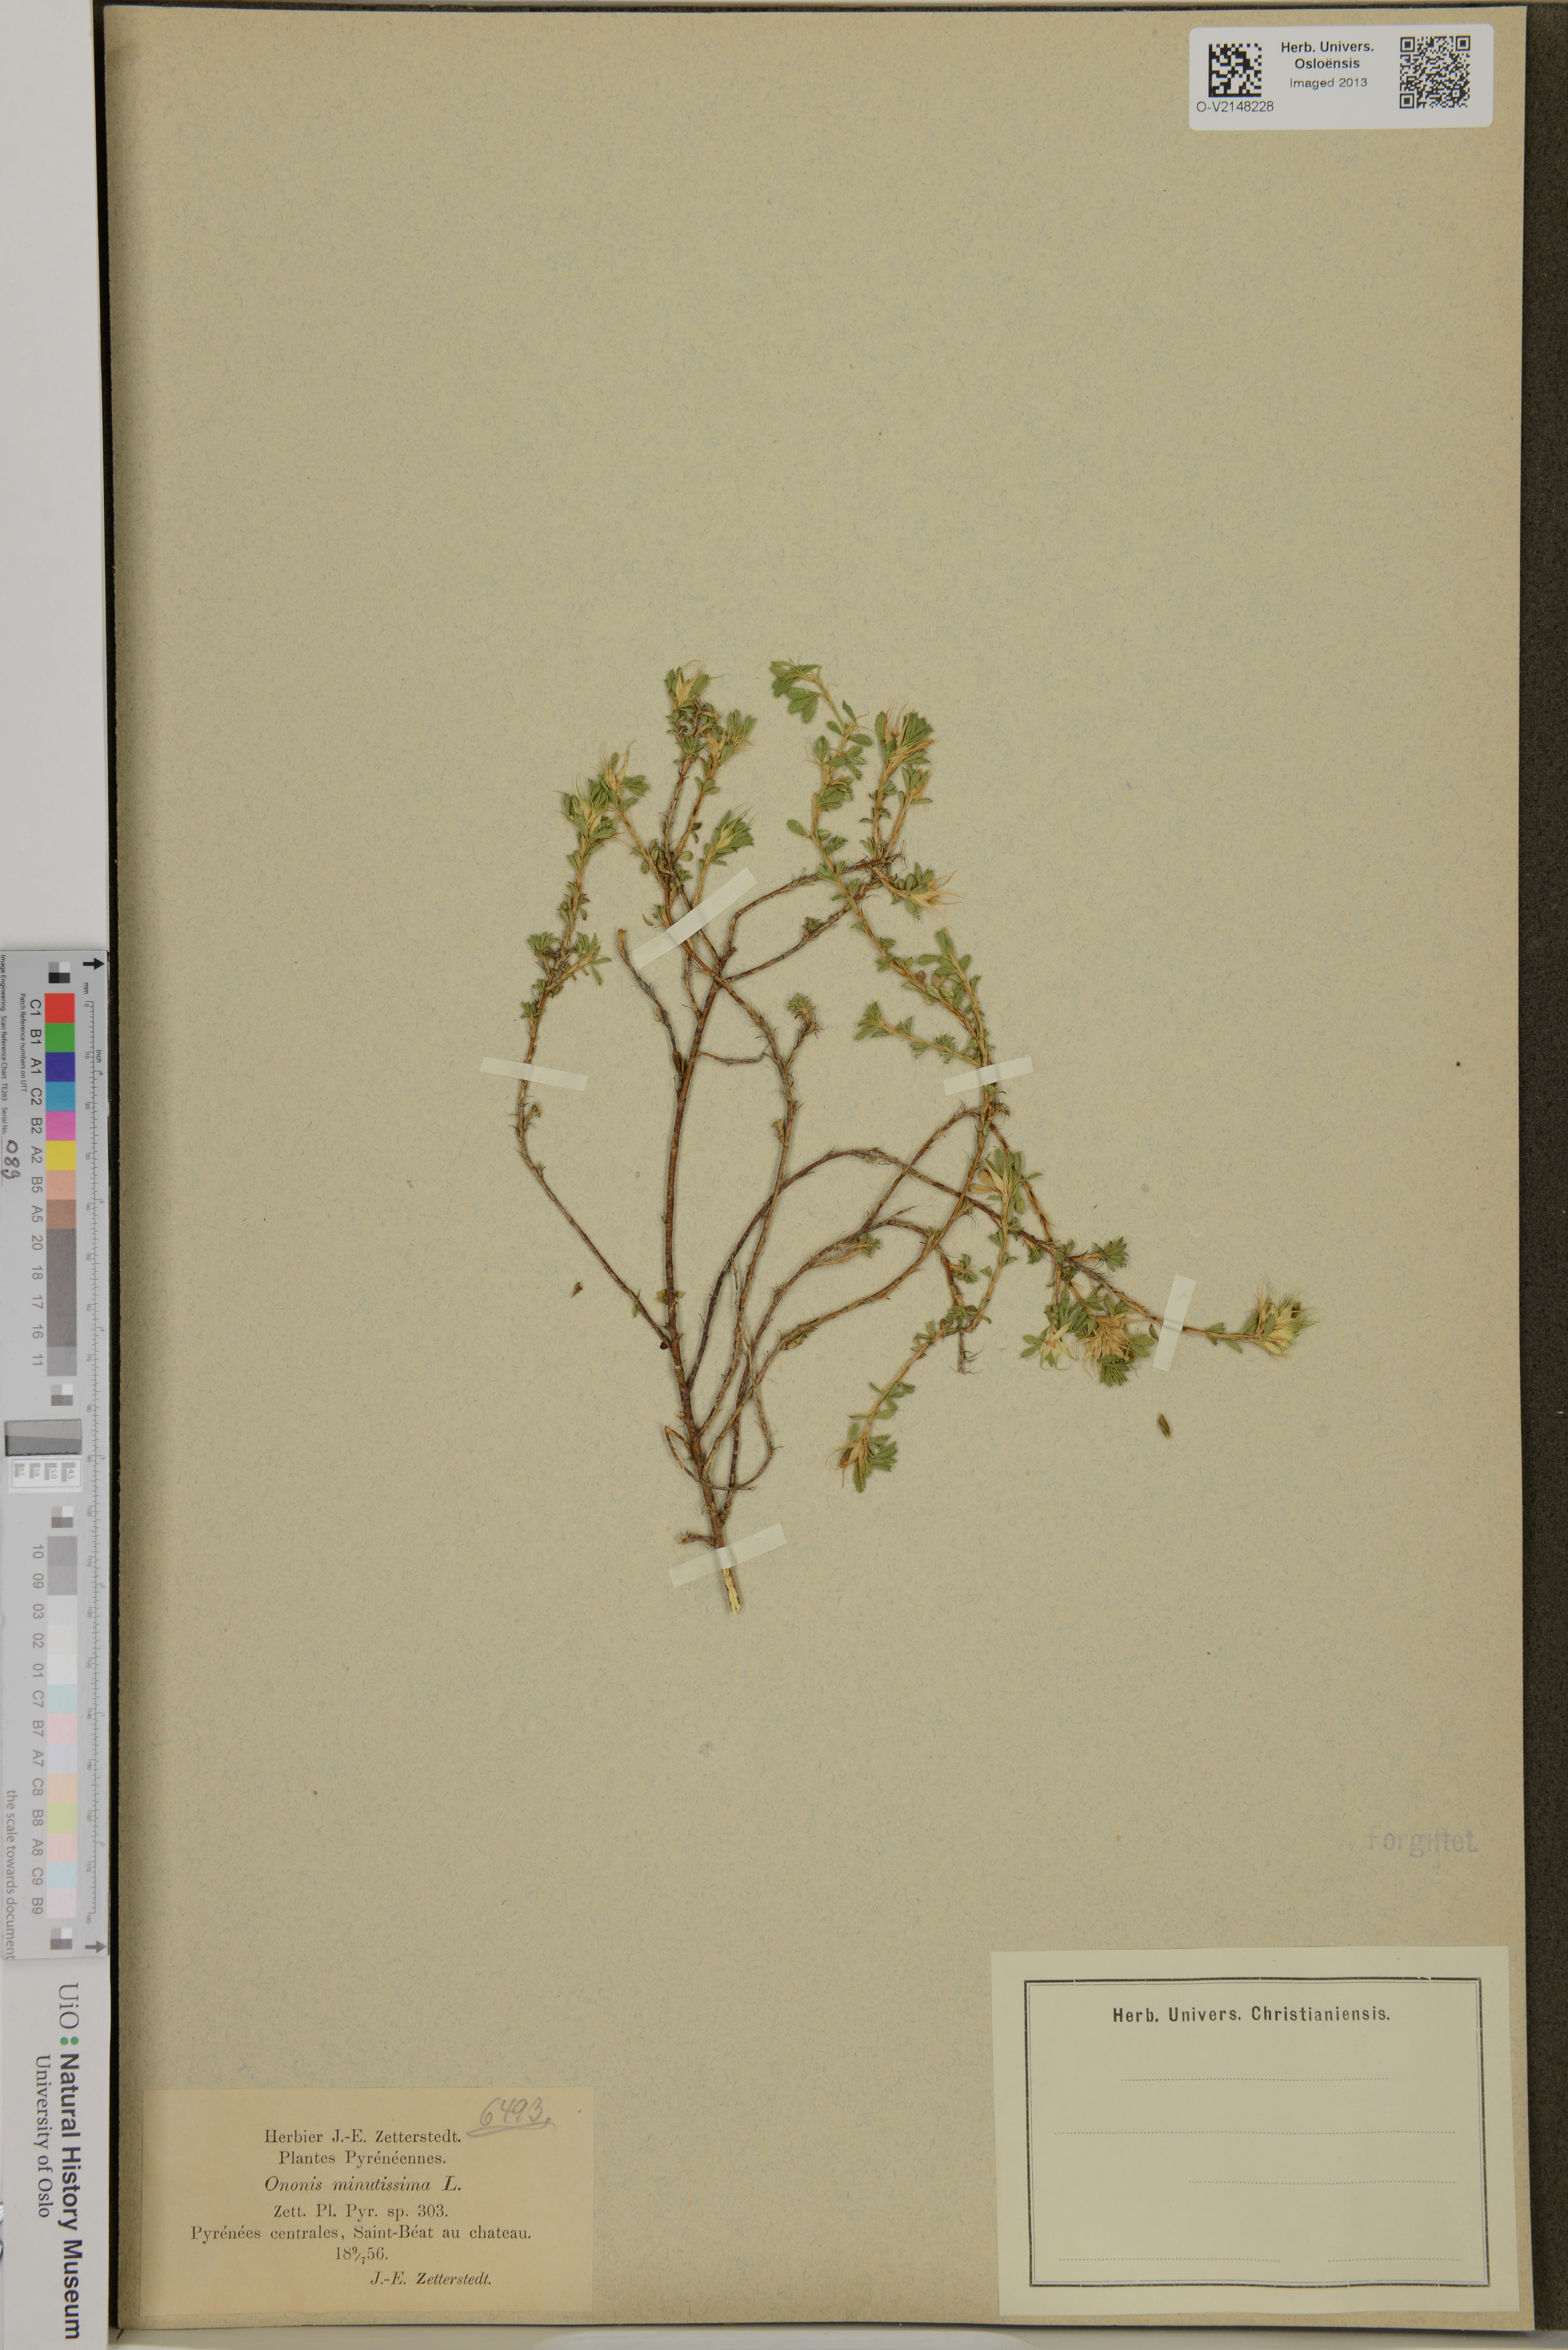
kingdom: Plantae
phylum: Tracheophyta
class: Magnoliopsida
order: Fabales
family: Fabaceae
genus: Ononis
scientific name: Ononis minutissima
